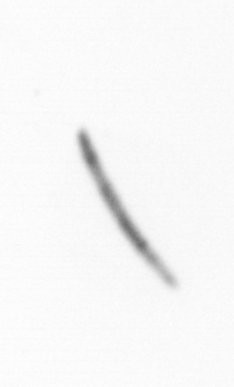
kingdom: Chromista
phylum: Ochrophyta
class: Bacillariophyceae
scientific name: Bacillariophyceae
